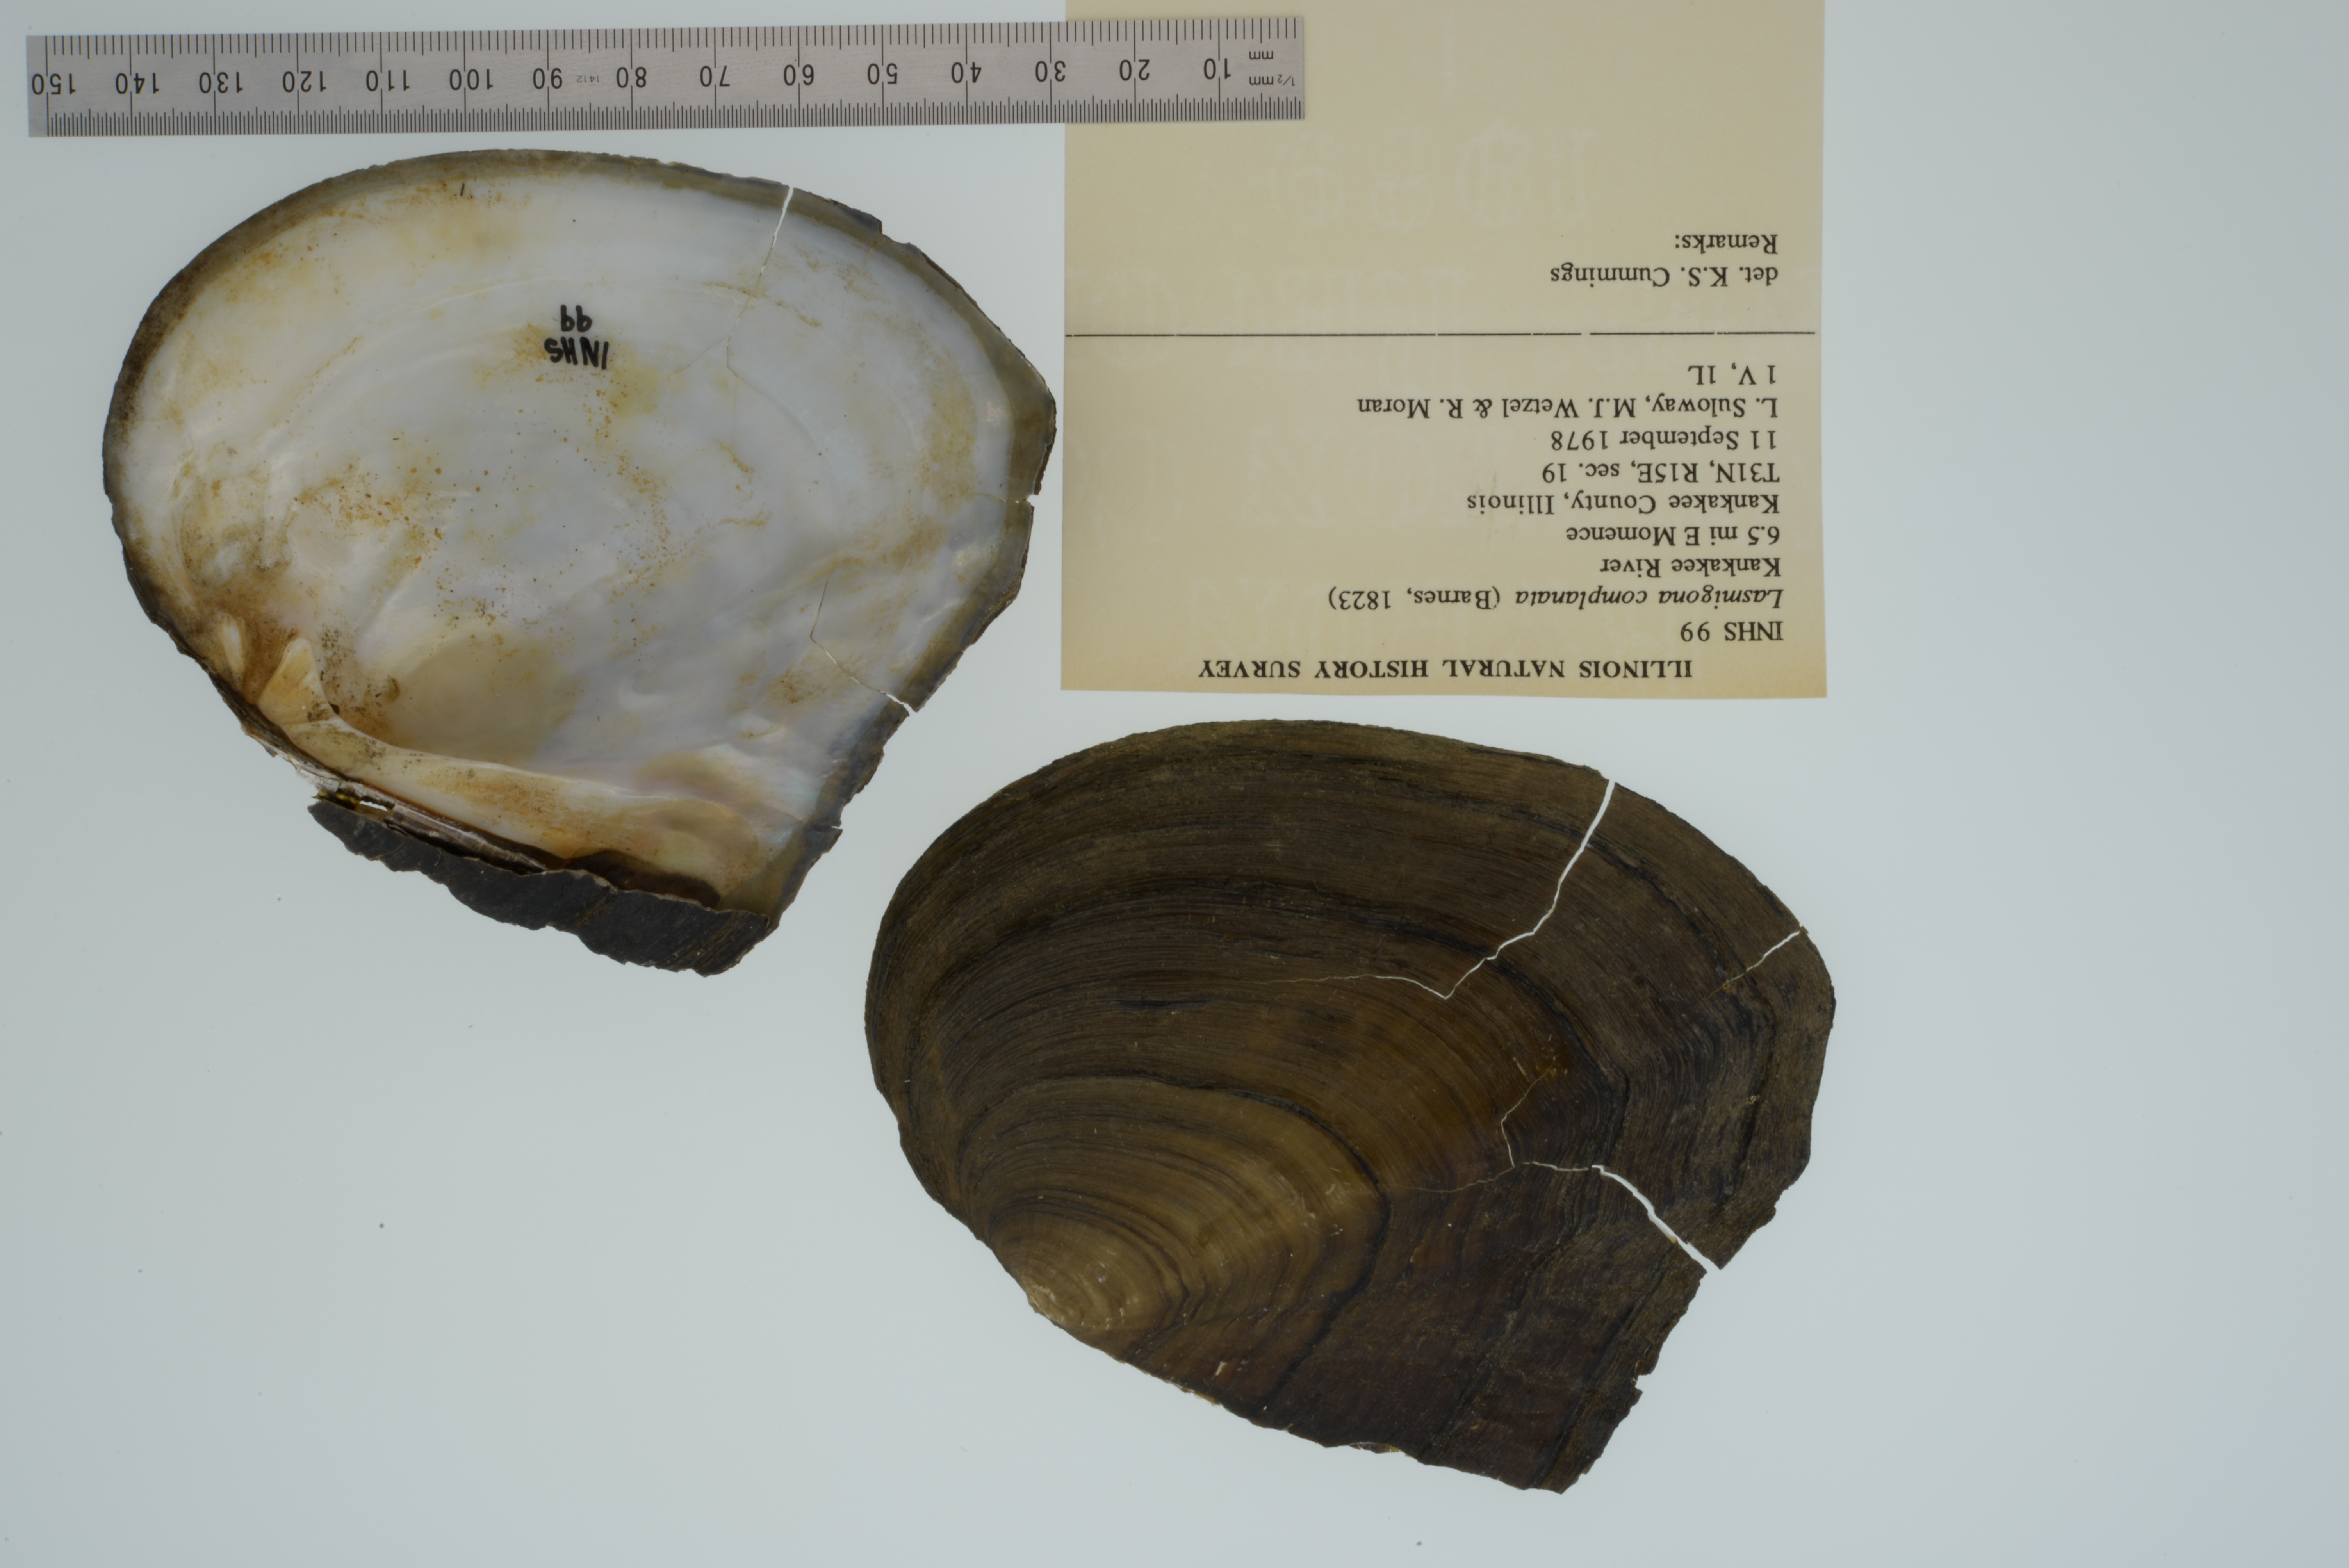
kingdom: Animalia
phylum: Mollusca
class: Bivalvia
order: Unionida
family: Unionidae
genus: Lasmigona
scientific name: Lasmigona complanata
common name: White heelsplitter
